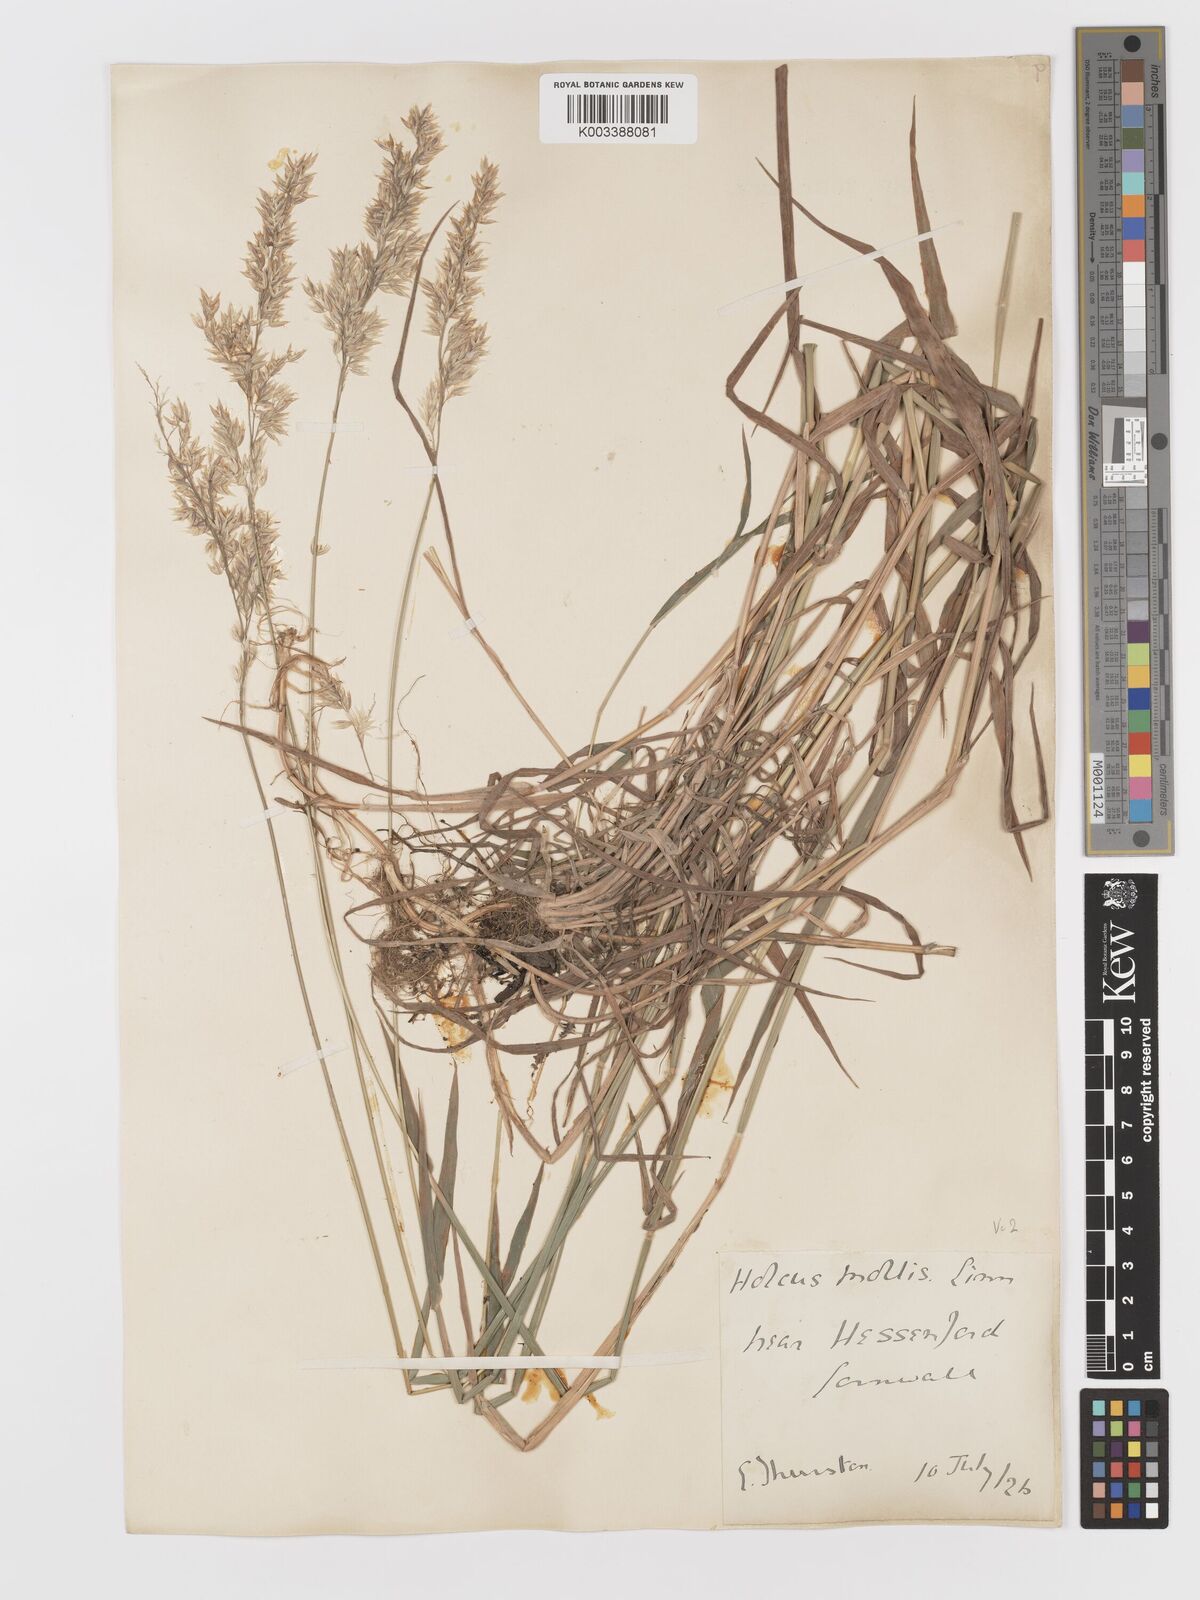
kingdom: Plantae
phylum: Tracheophyta
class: Liliopsida
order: Poales
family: Poaceae
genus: Holcus
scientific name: Holcus mollis
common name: Creeping velvetgrass
